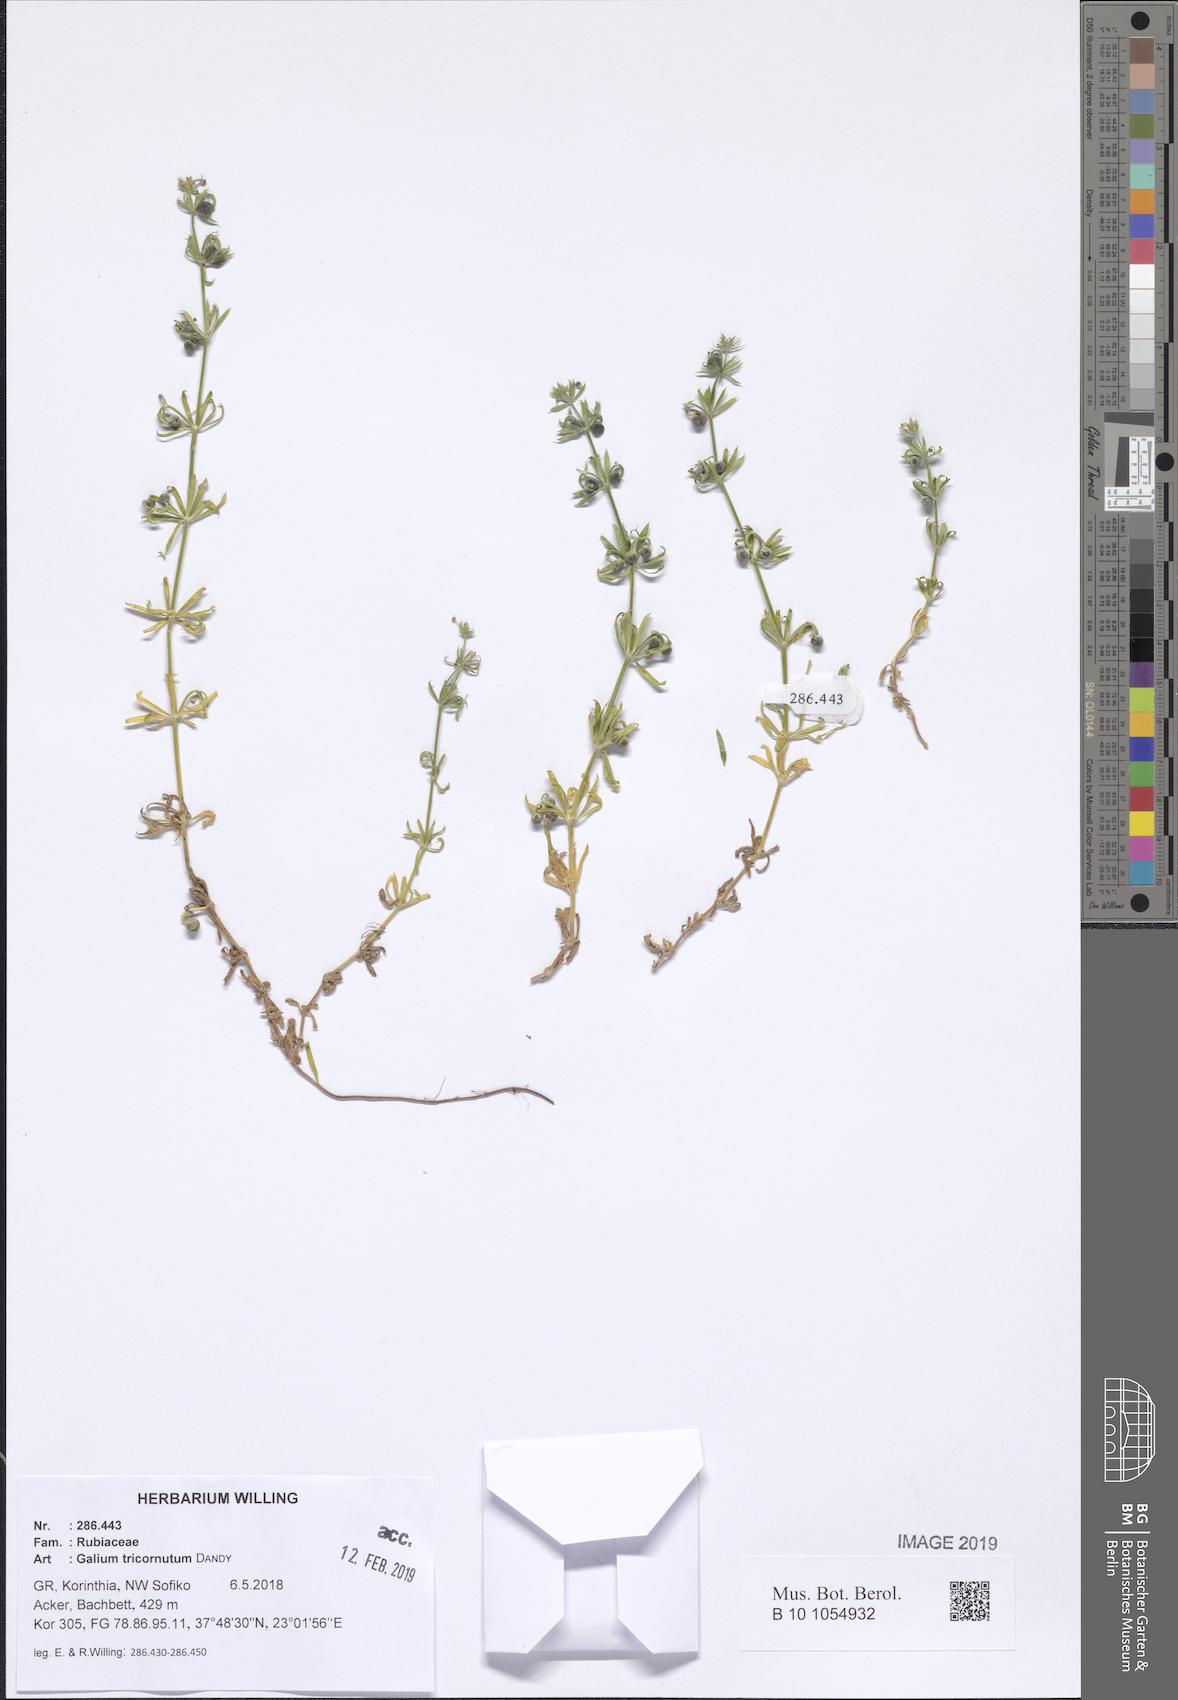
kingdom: Plantae
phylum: Tracheophyta
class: Magnoliopsida
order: Gentianales
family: Rubiaceae
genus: Galium
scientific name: Galium tricornutum
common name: Corn cleavers
